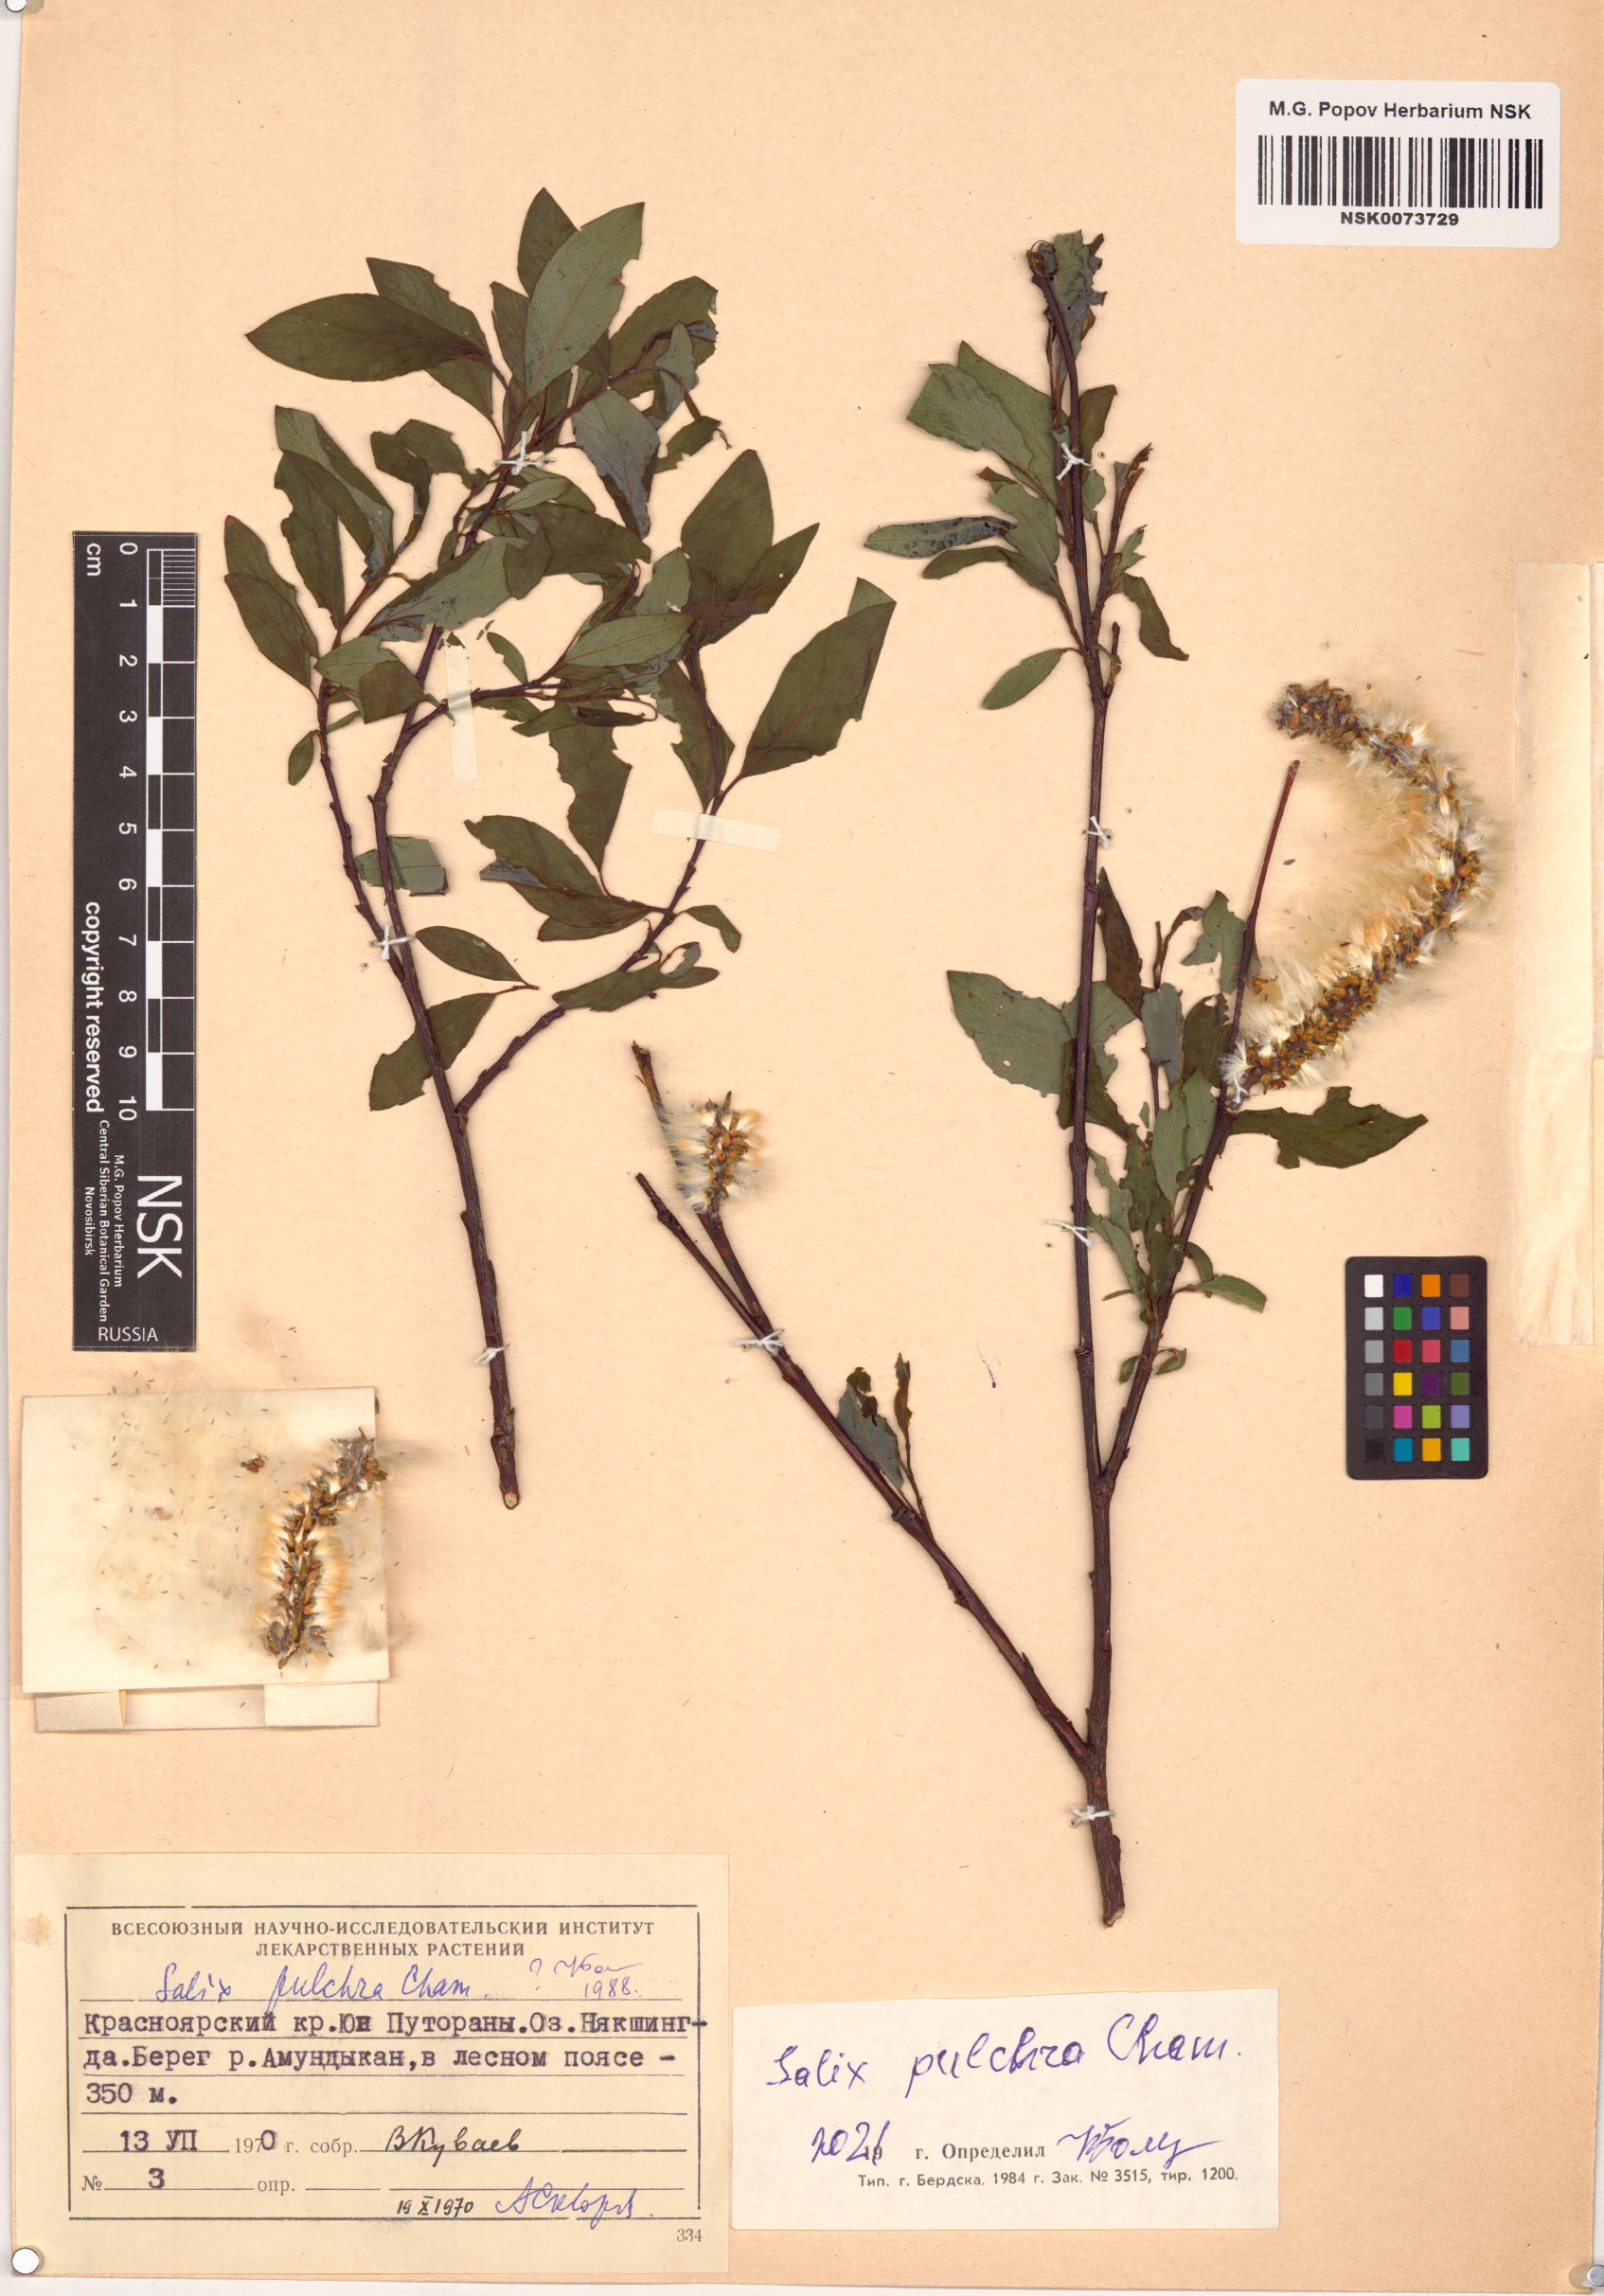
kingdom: Plantae
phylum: Tracheophyta
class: Magnoliopsida
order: Malpighiales
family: Salicaceae
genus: Salix
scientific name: Salix pulchra
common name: Diamond-leaved willow
